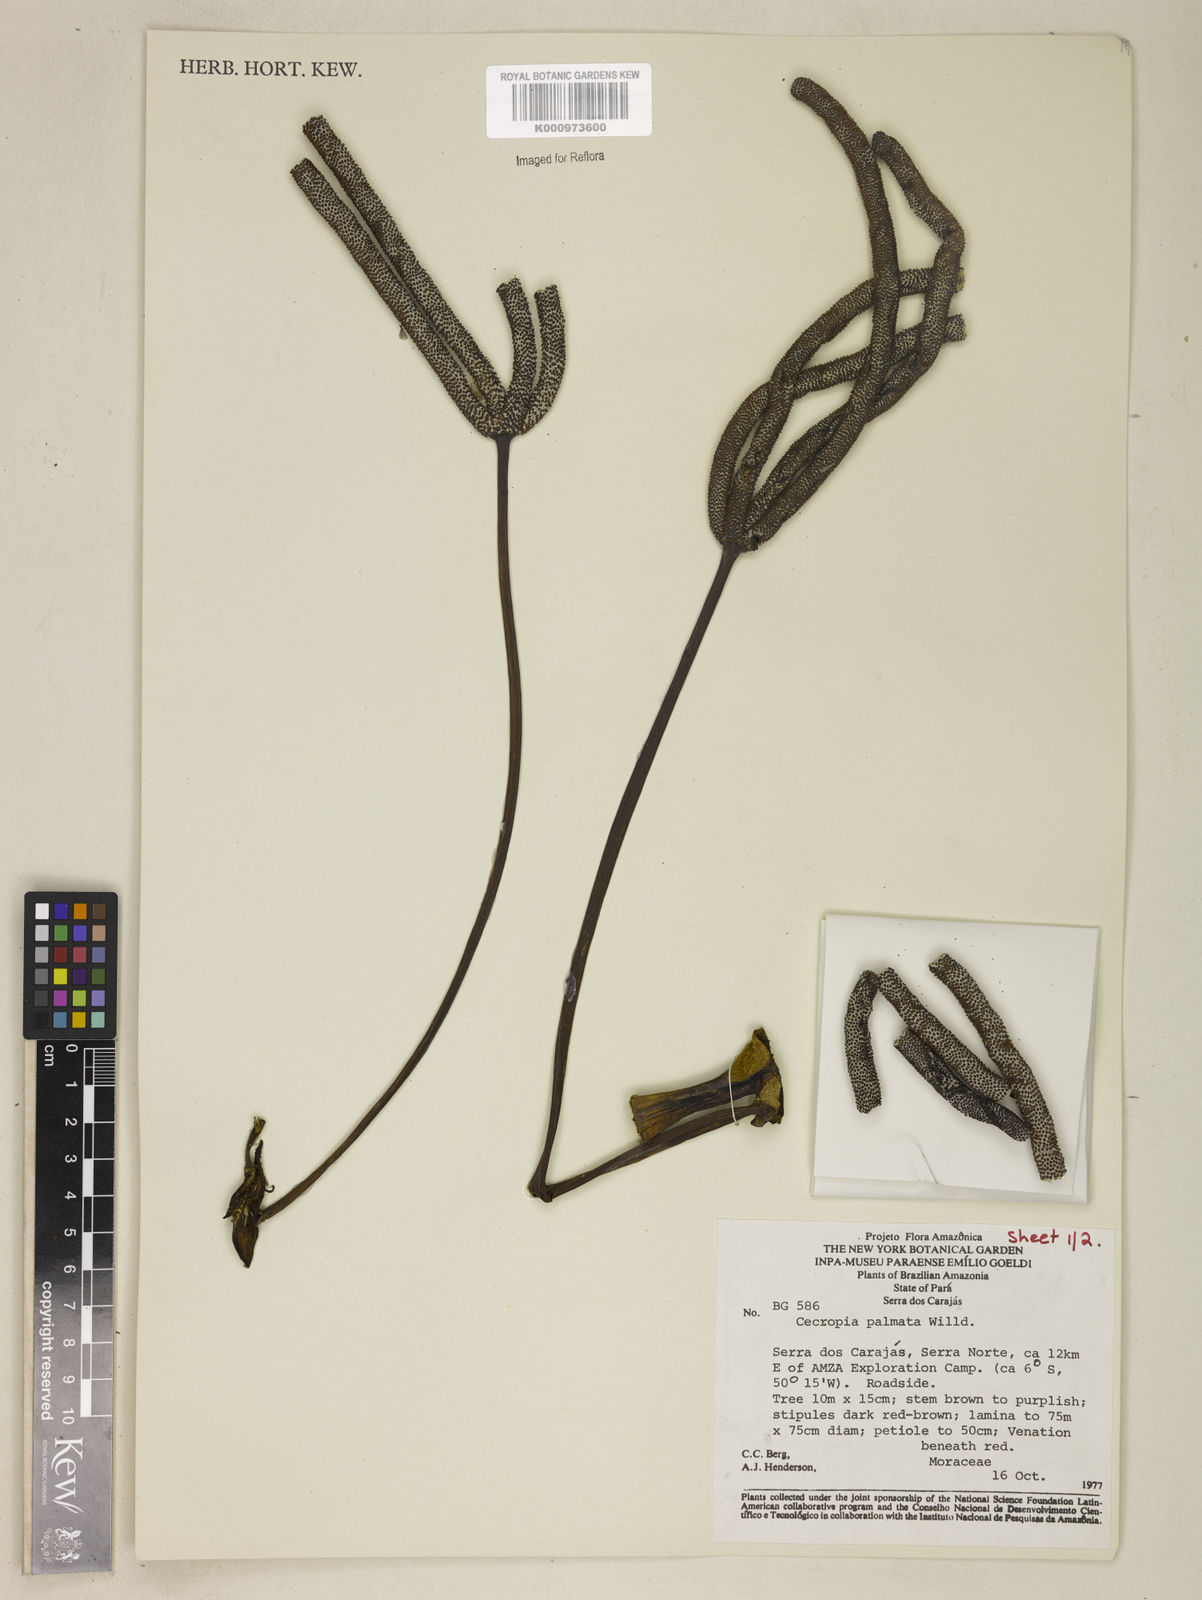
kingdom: Plantae
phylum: Tracheophyta
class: Magnoliopsida
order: Rosales
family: Urticaceae
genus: Cecropia
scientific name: Cecropia palmata
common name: Trumpet tree
